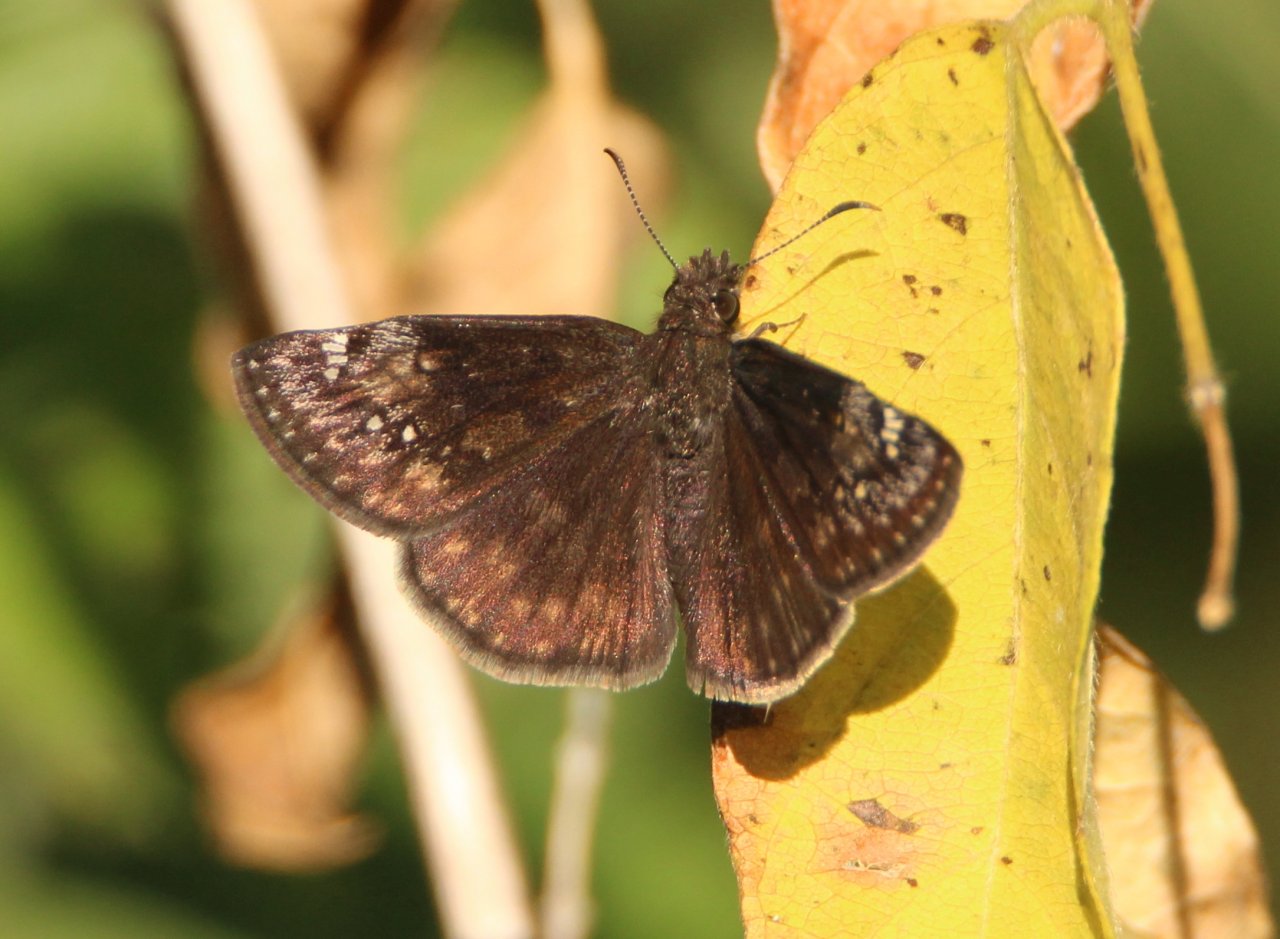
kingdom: Animalia
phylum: Arthropoda
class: Insecta
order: Lepidoptera
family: Hesperiidae
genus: Gesta
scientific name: Gesta
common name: Wild Indigo Duskywing
